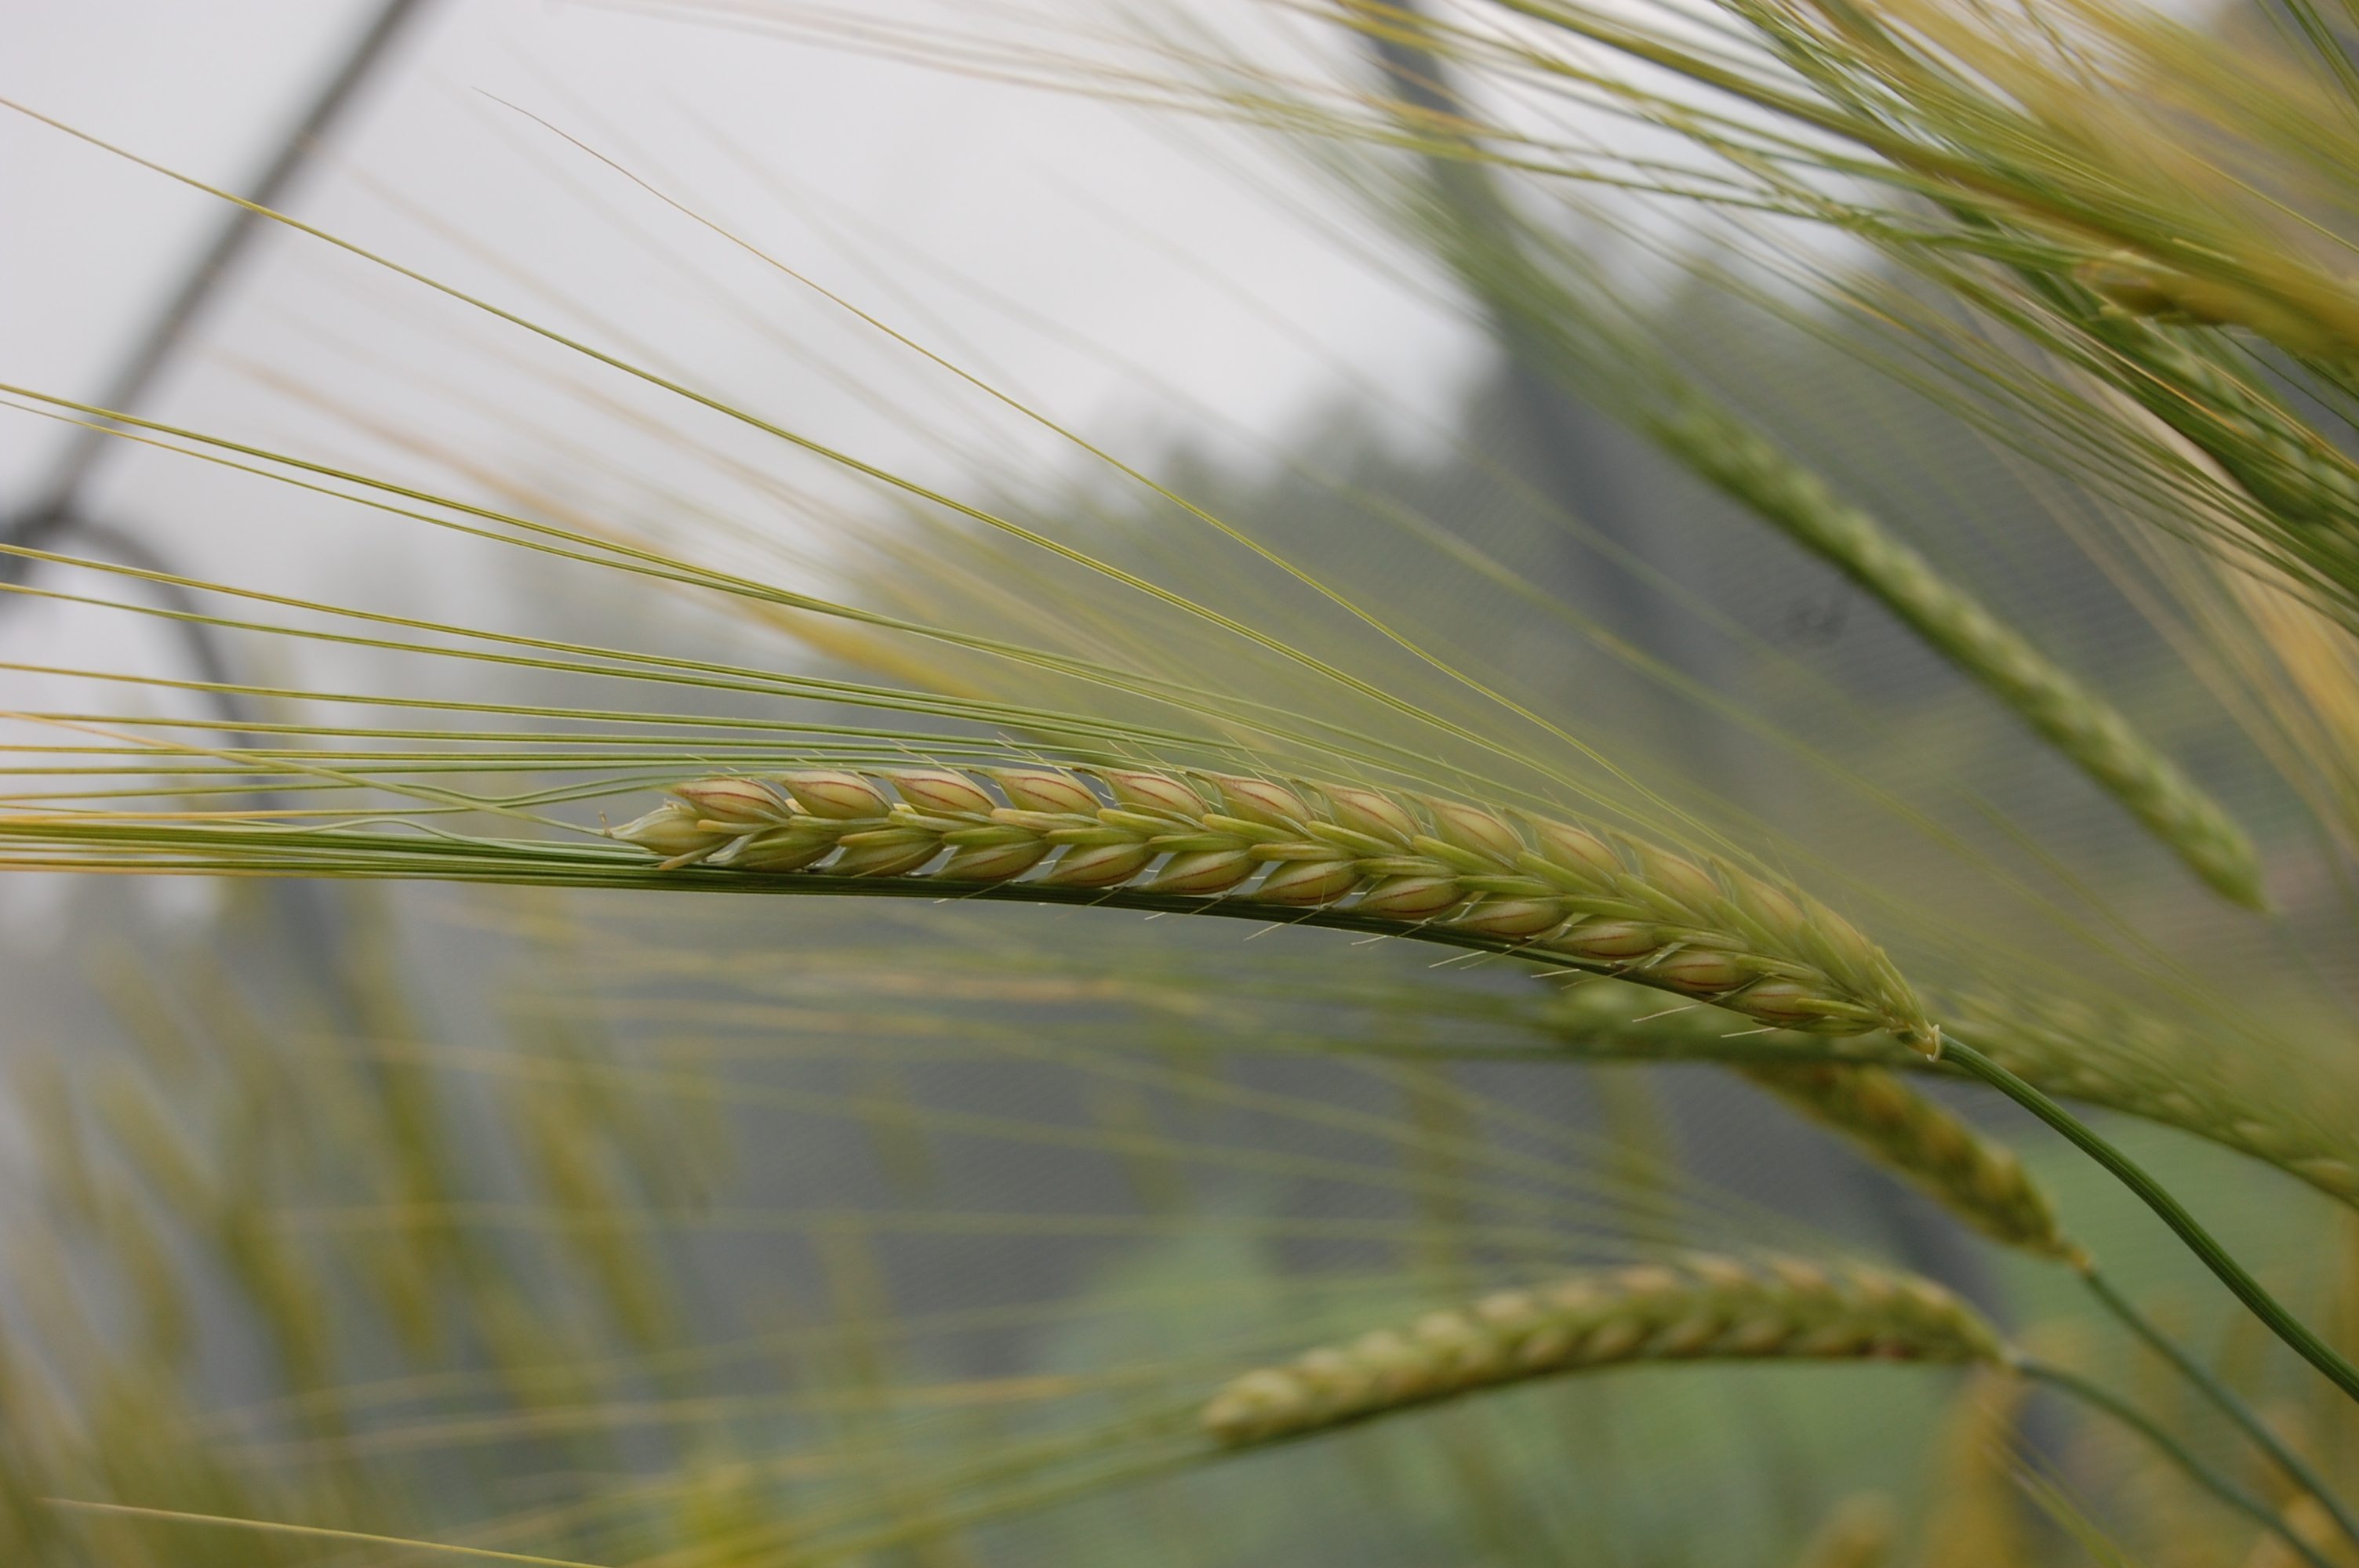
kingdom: Plantae
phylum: Tracheophyta
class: Liliopsida
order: Poales
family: Poaceae
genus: Hordeum
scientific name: Hordeum vulgare
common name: Common barley
